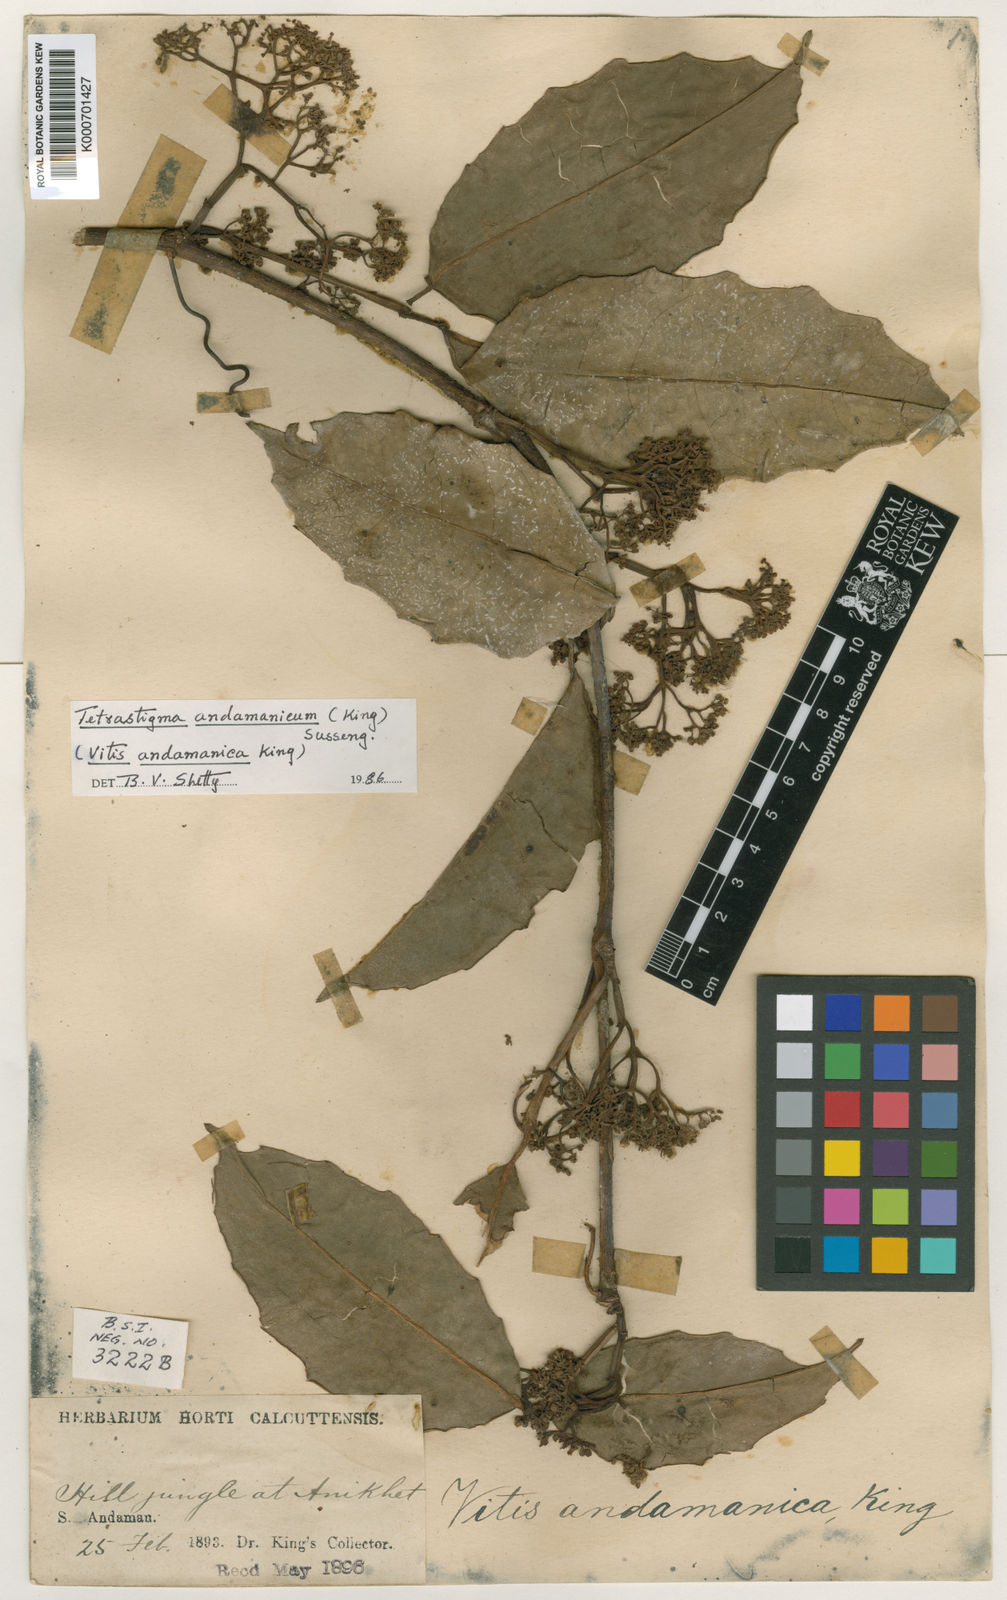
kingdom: Plantae
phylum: Tracheophyta
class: Magnoliopsida
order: Vitales
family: Vitaceae
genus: Tetrastigma
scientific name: Tetrastigma andamanicum
